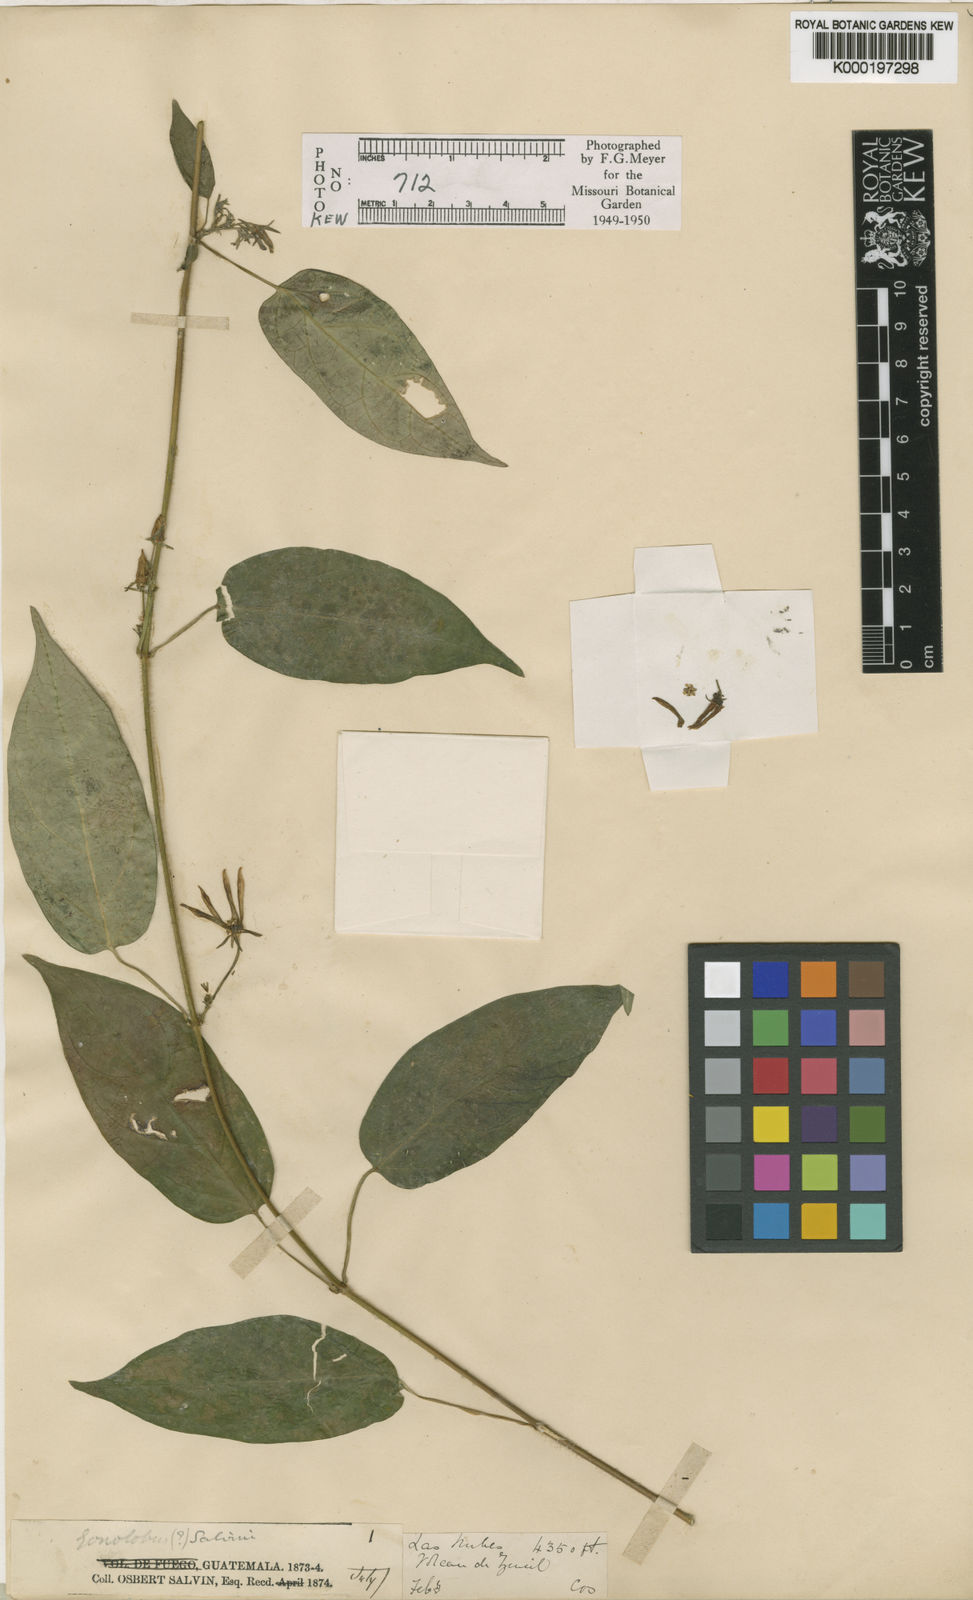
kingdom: Plantae
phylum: Tracheophyta
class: Magnoliopsida
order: Gentianales
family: Apocynaceae
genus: Gonolobus
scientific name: Gonolobus salvinii
